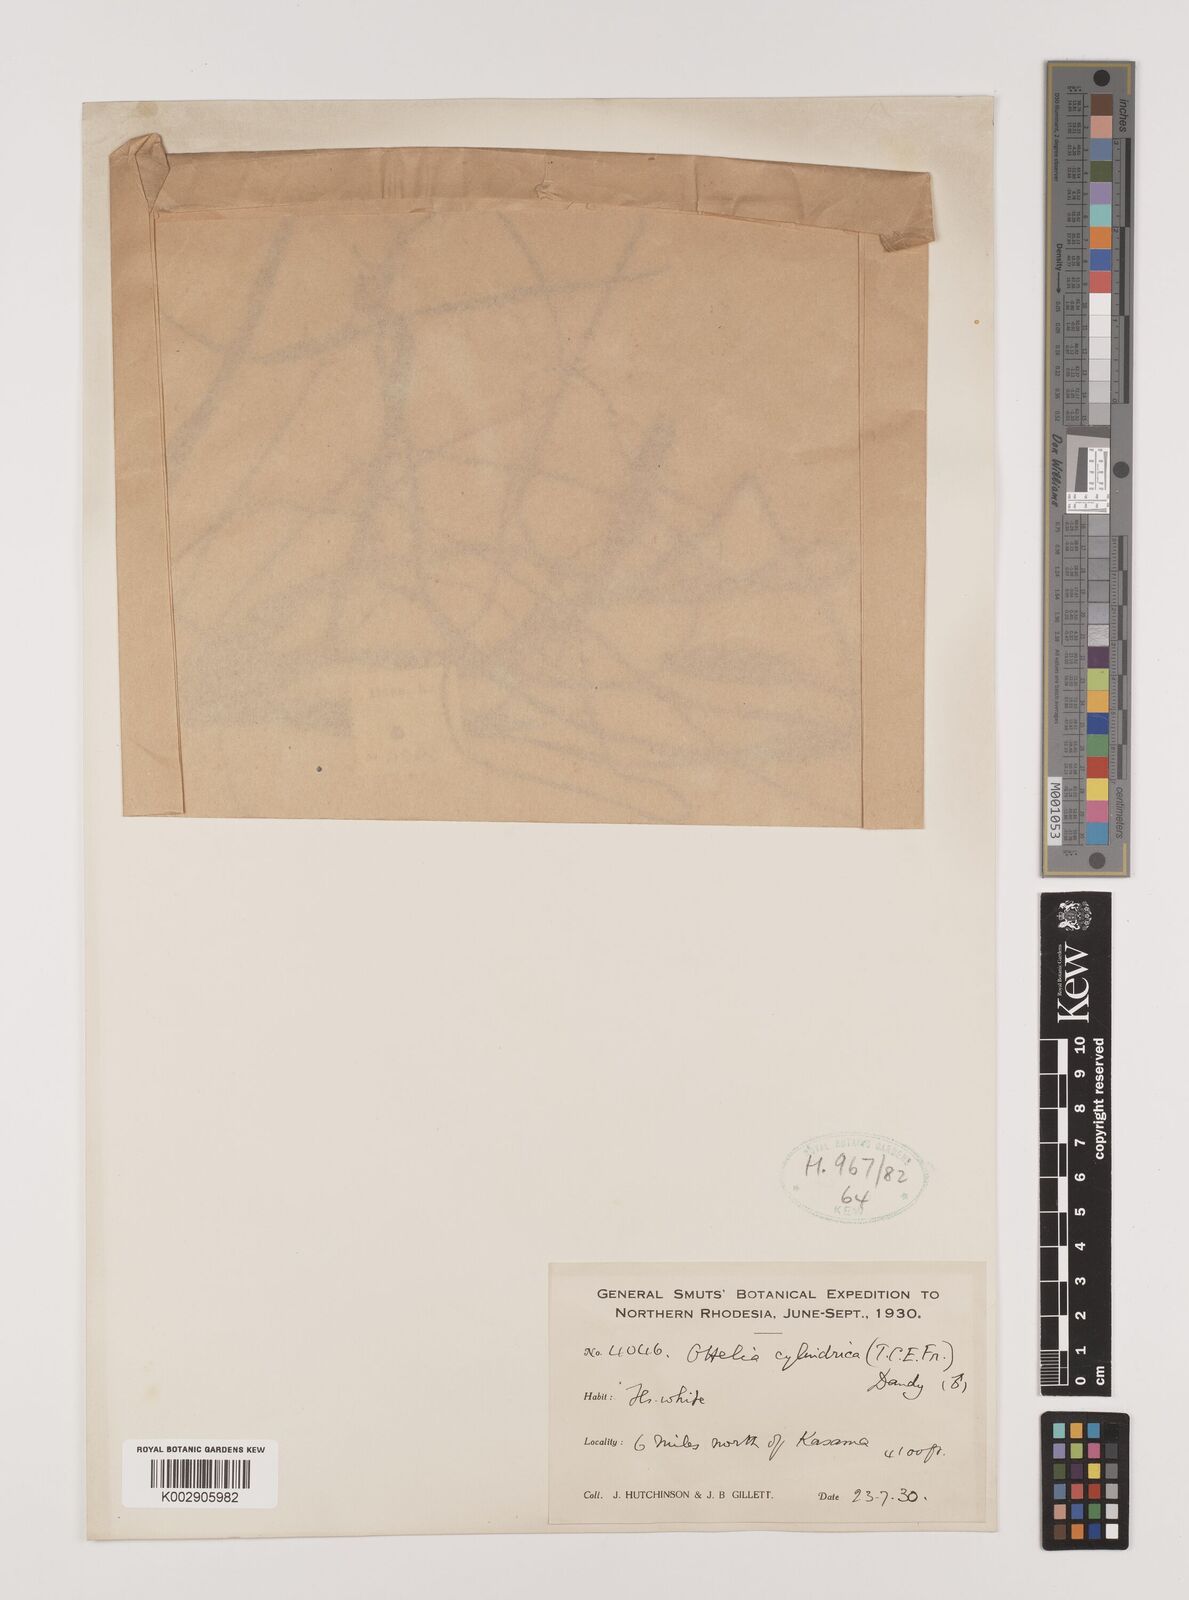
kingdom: Plantae
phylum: Tracheophyta
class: Liliopsida
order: Alismatales
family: Hydrocharitaceae
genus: Ottelia
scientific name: Ottelia cylindrica
